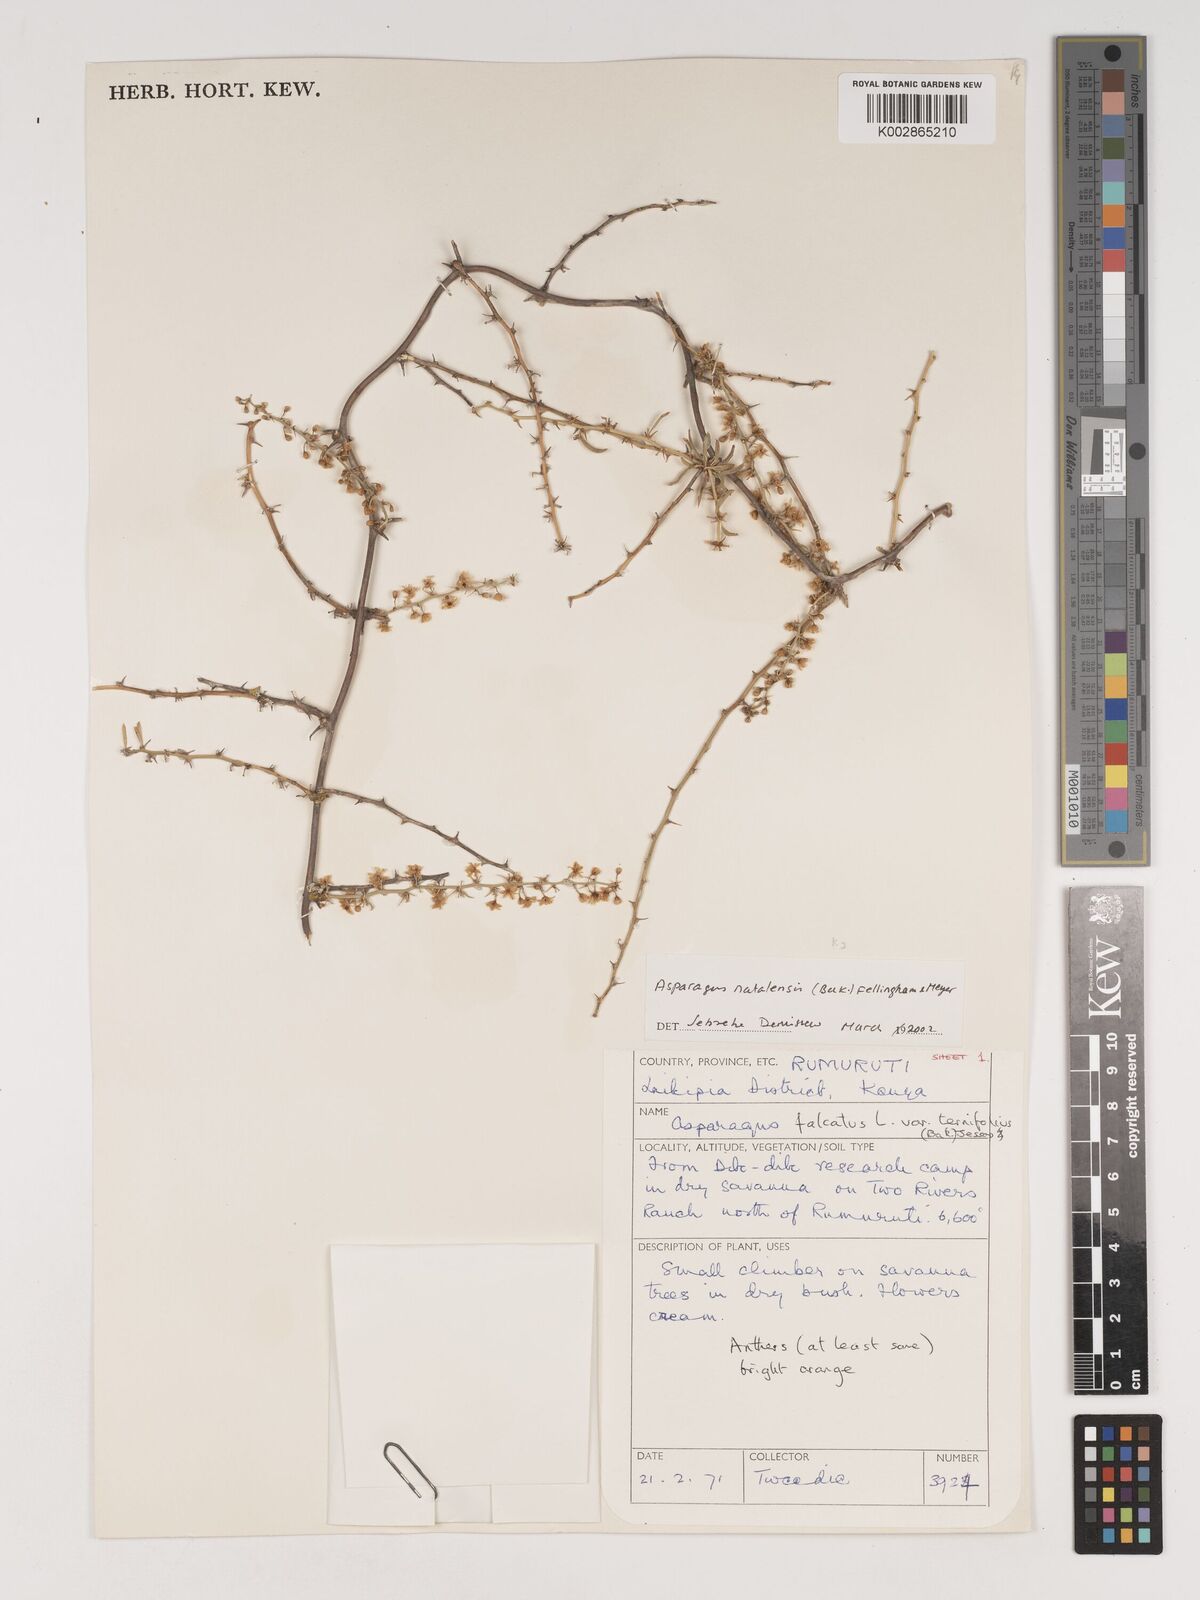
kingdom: Plantae
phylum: Tracheophyta
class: Liliopsida
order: Asparagales
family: Asparagaceae
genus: Asparagus
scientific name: Asparagus natalensis
